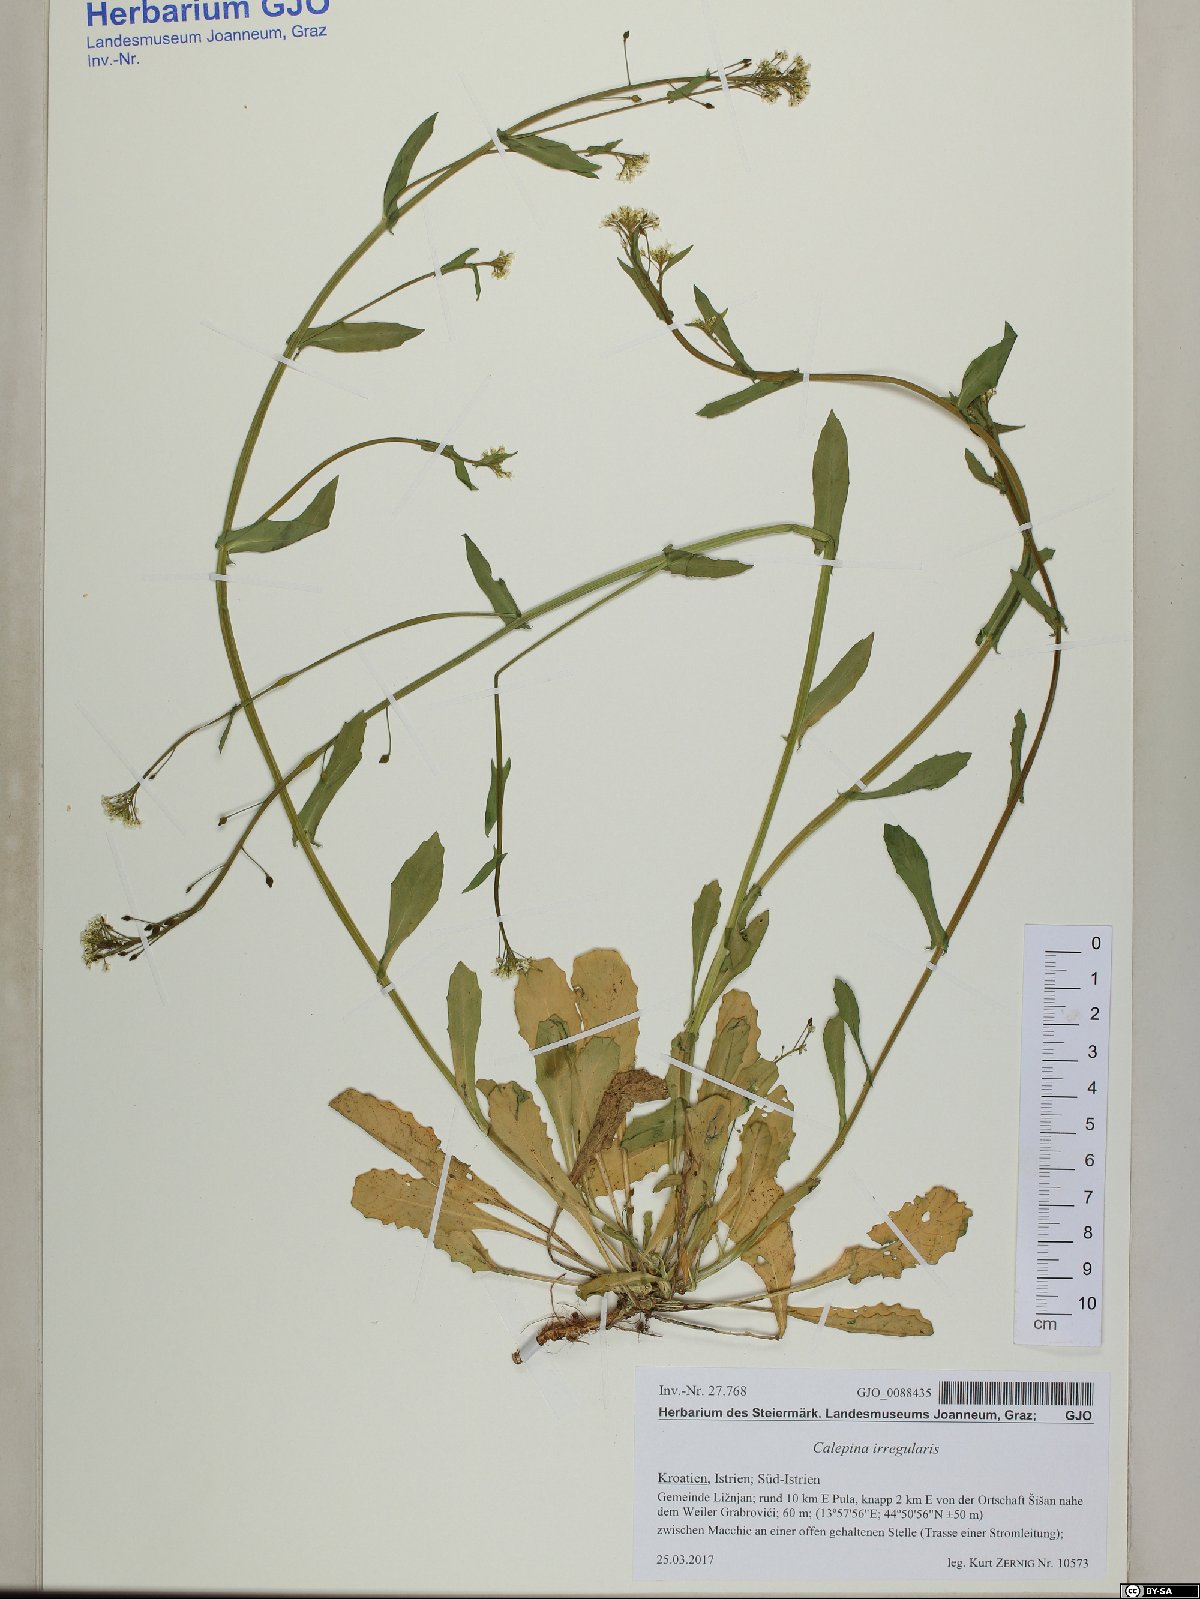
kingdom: Plantae
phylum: Tracheophyta
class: Magnoliopsida
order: Brassicales
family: Brassicaceae
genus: Calepina
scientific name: Calepina irregularis
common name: White ballmustard
